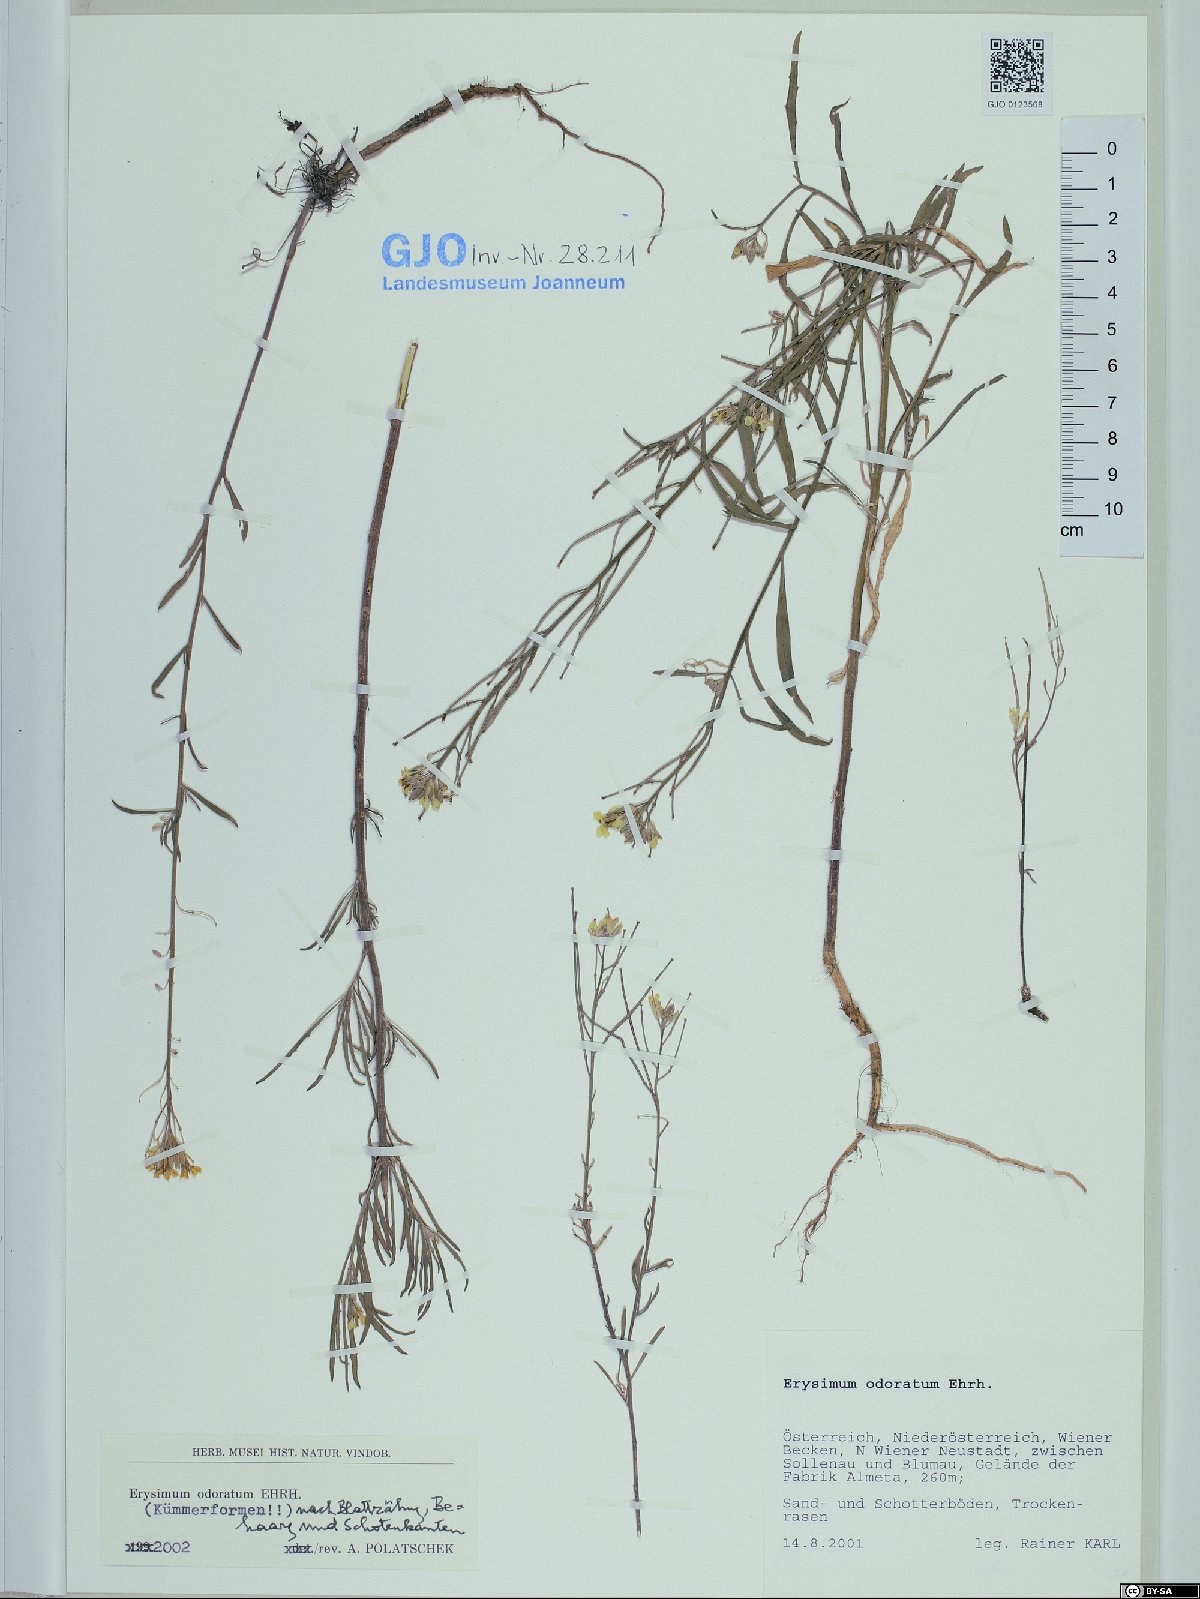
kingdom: Plantae
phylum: Tracheophyta
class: Magnoliopsida
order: Brassicales
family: Brassicaceae
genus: Erysimum
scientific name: Erysimum odoratum
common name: Smelly wallflower
